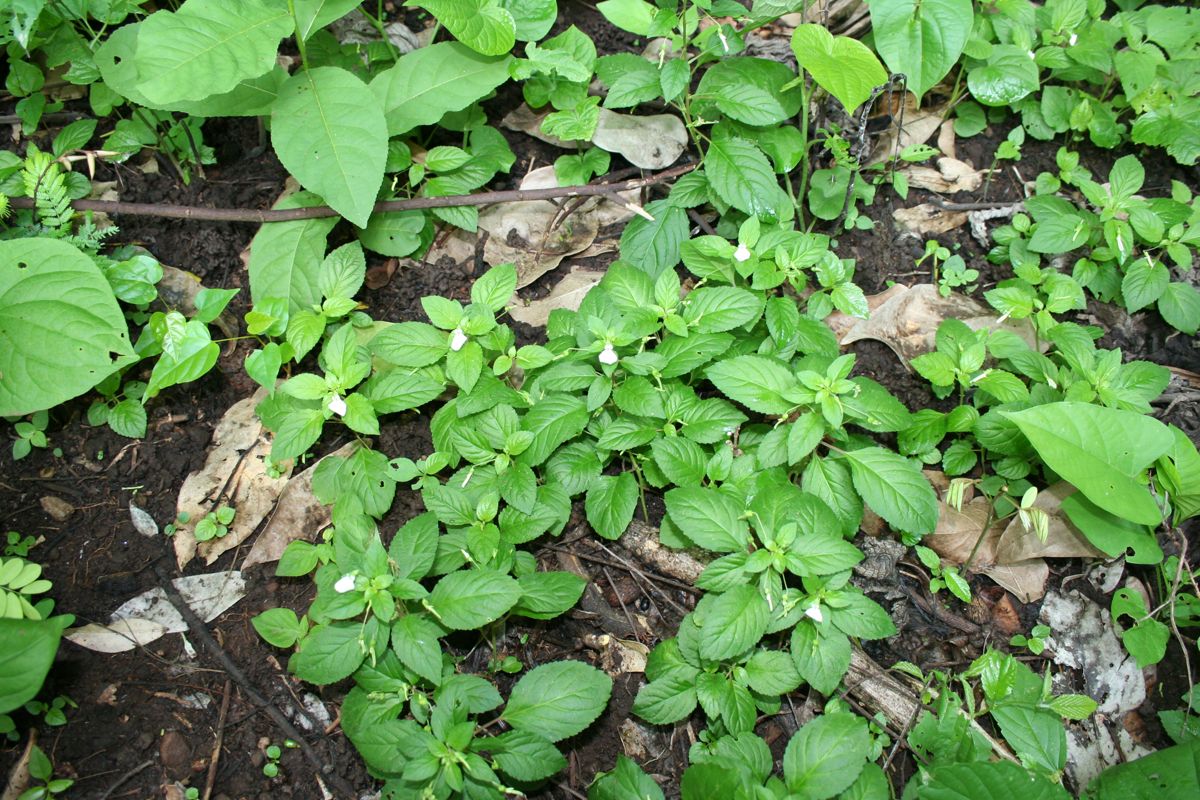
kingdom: Plantae
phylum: Tracheophyta
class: Magnoliopsida
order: Malpighiales
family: Violaceae
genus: Hybanthus
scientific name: Hybanthus thiemei
